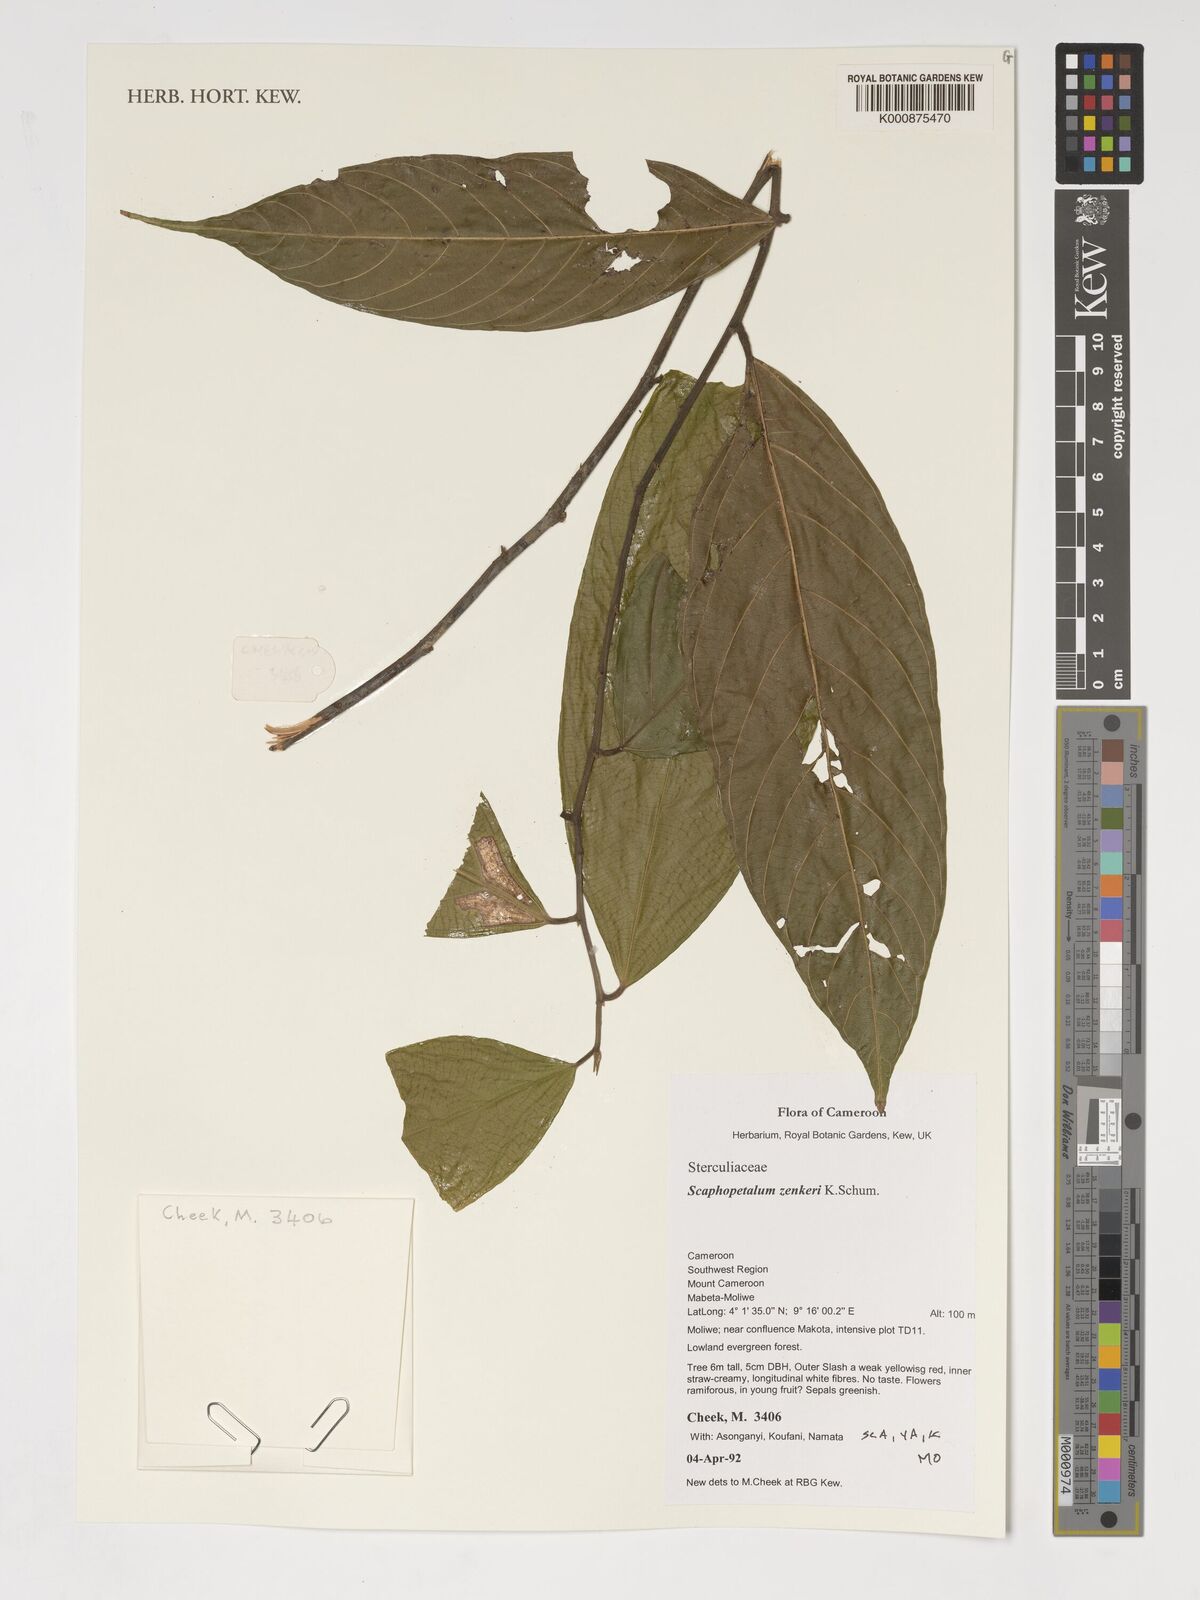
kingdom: Plantae
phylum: Tracheophyta
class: Magnoliopsida
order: Malvales
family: Malvaceae
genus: Scaphopetalum
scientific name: Scaphopetalum zenkeri
